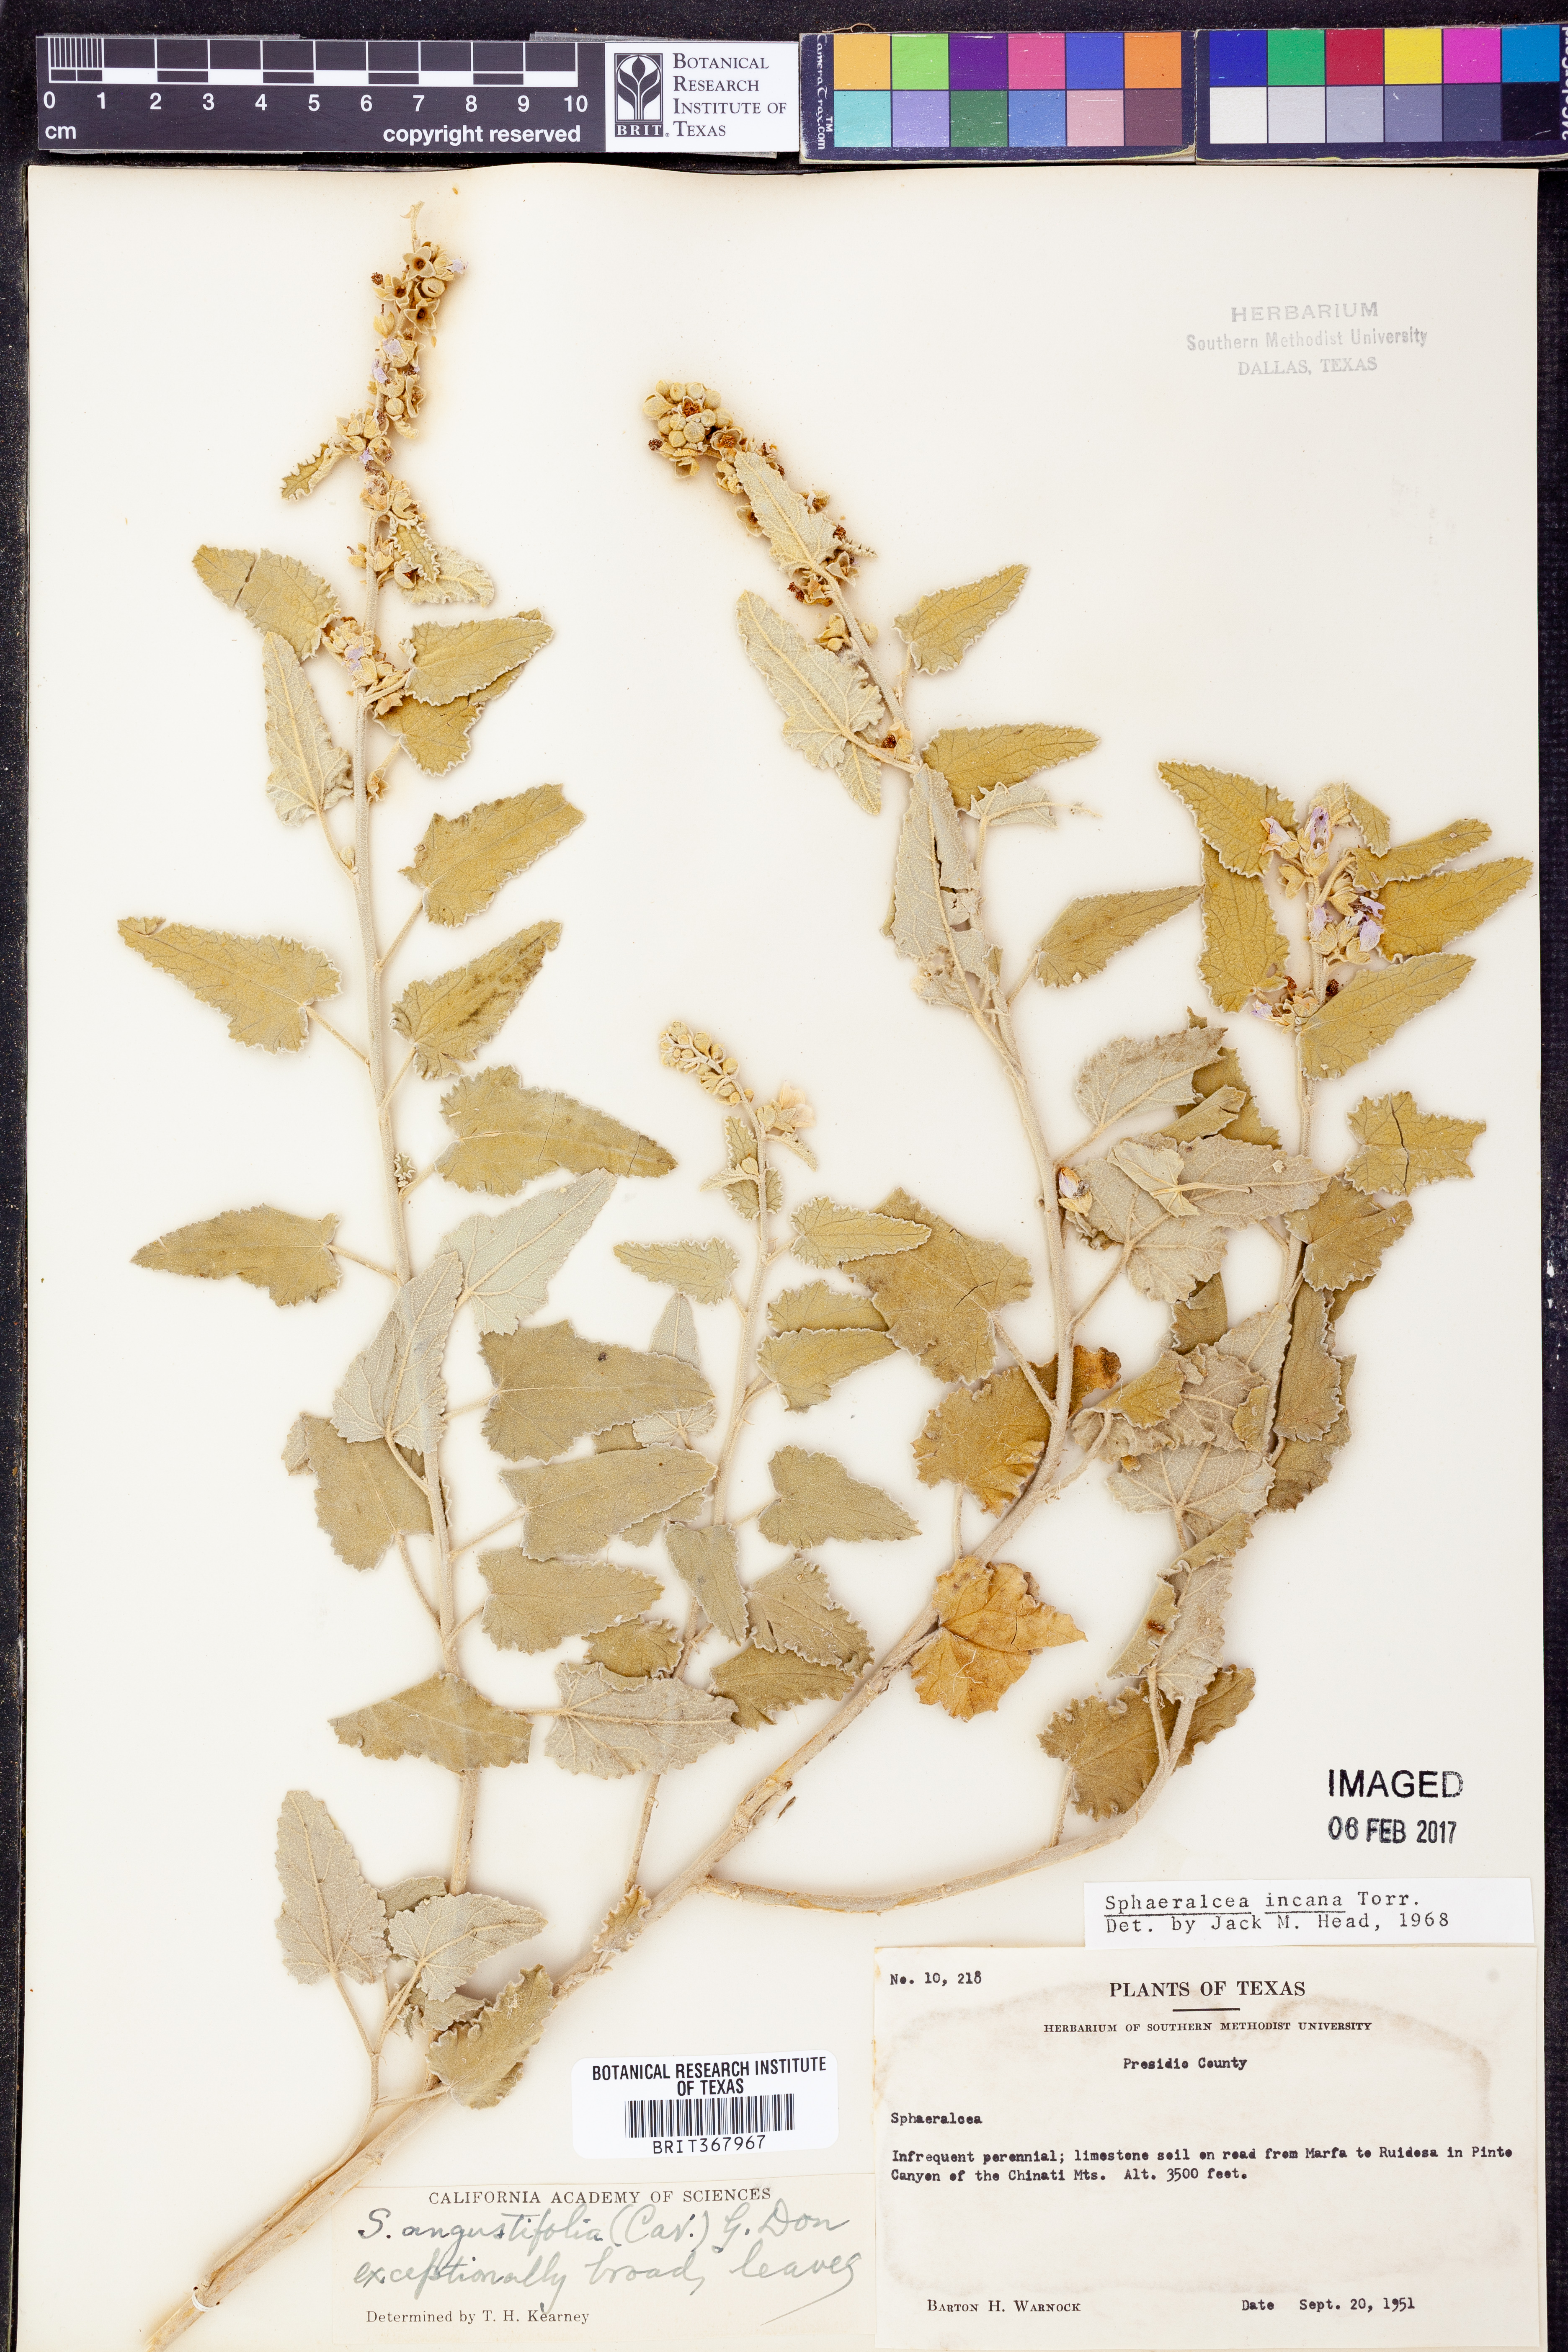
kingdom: Plantae
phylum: Tracheophyta
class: Magnoliopsida
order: Malvales
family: Malvaceae
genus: Sphaeralcea
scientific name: Sphaeralcea incana
